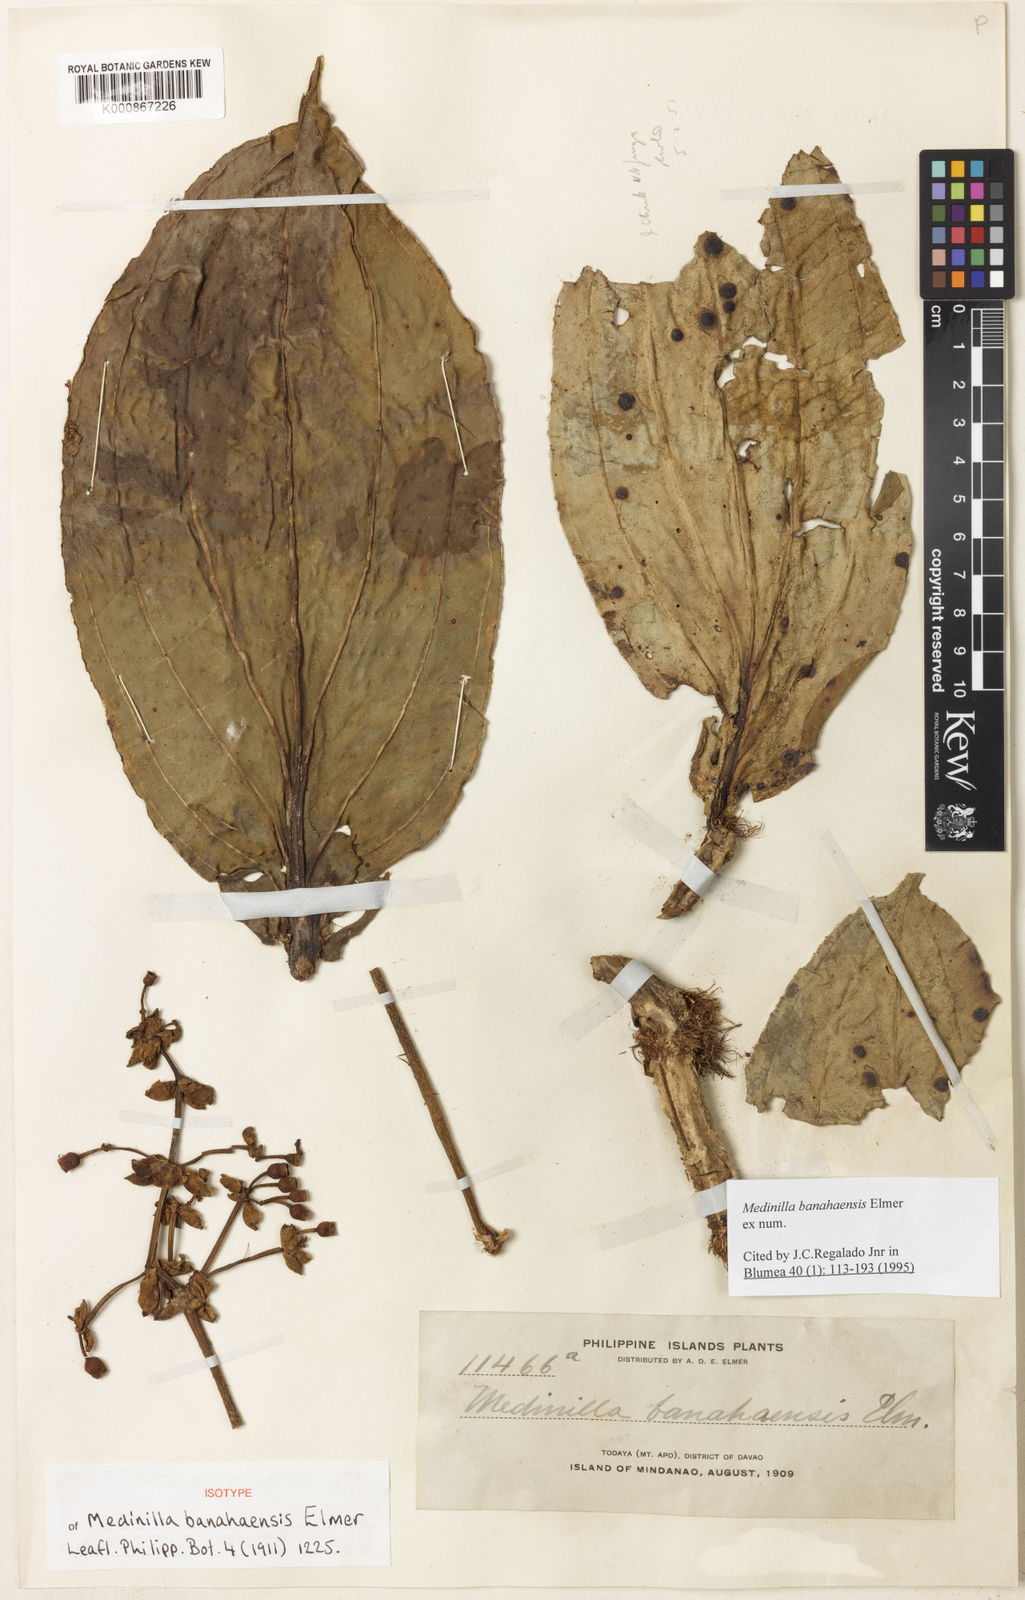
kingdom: Plantae
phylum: Tracheophyta
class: Magnoliopsida
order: Myrtales
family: Melastomataceae
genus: Medinilla
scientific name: Medinilla banahaensis
